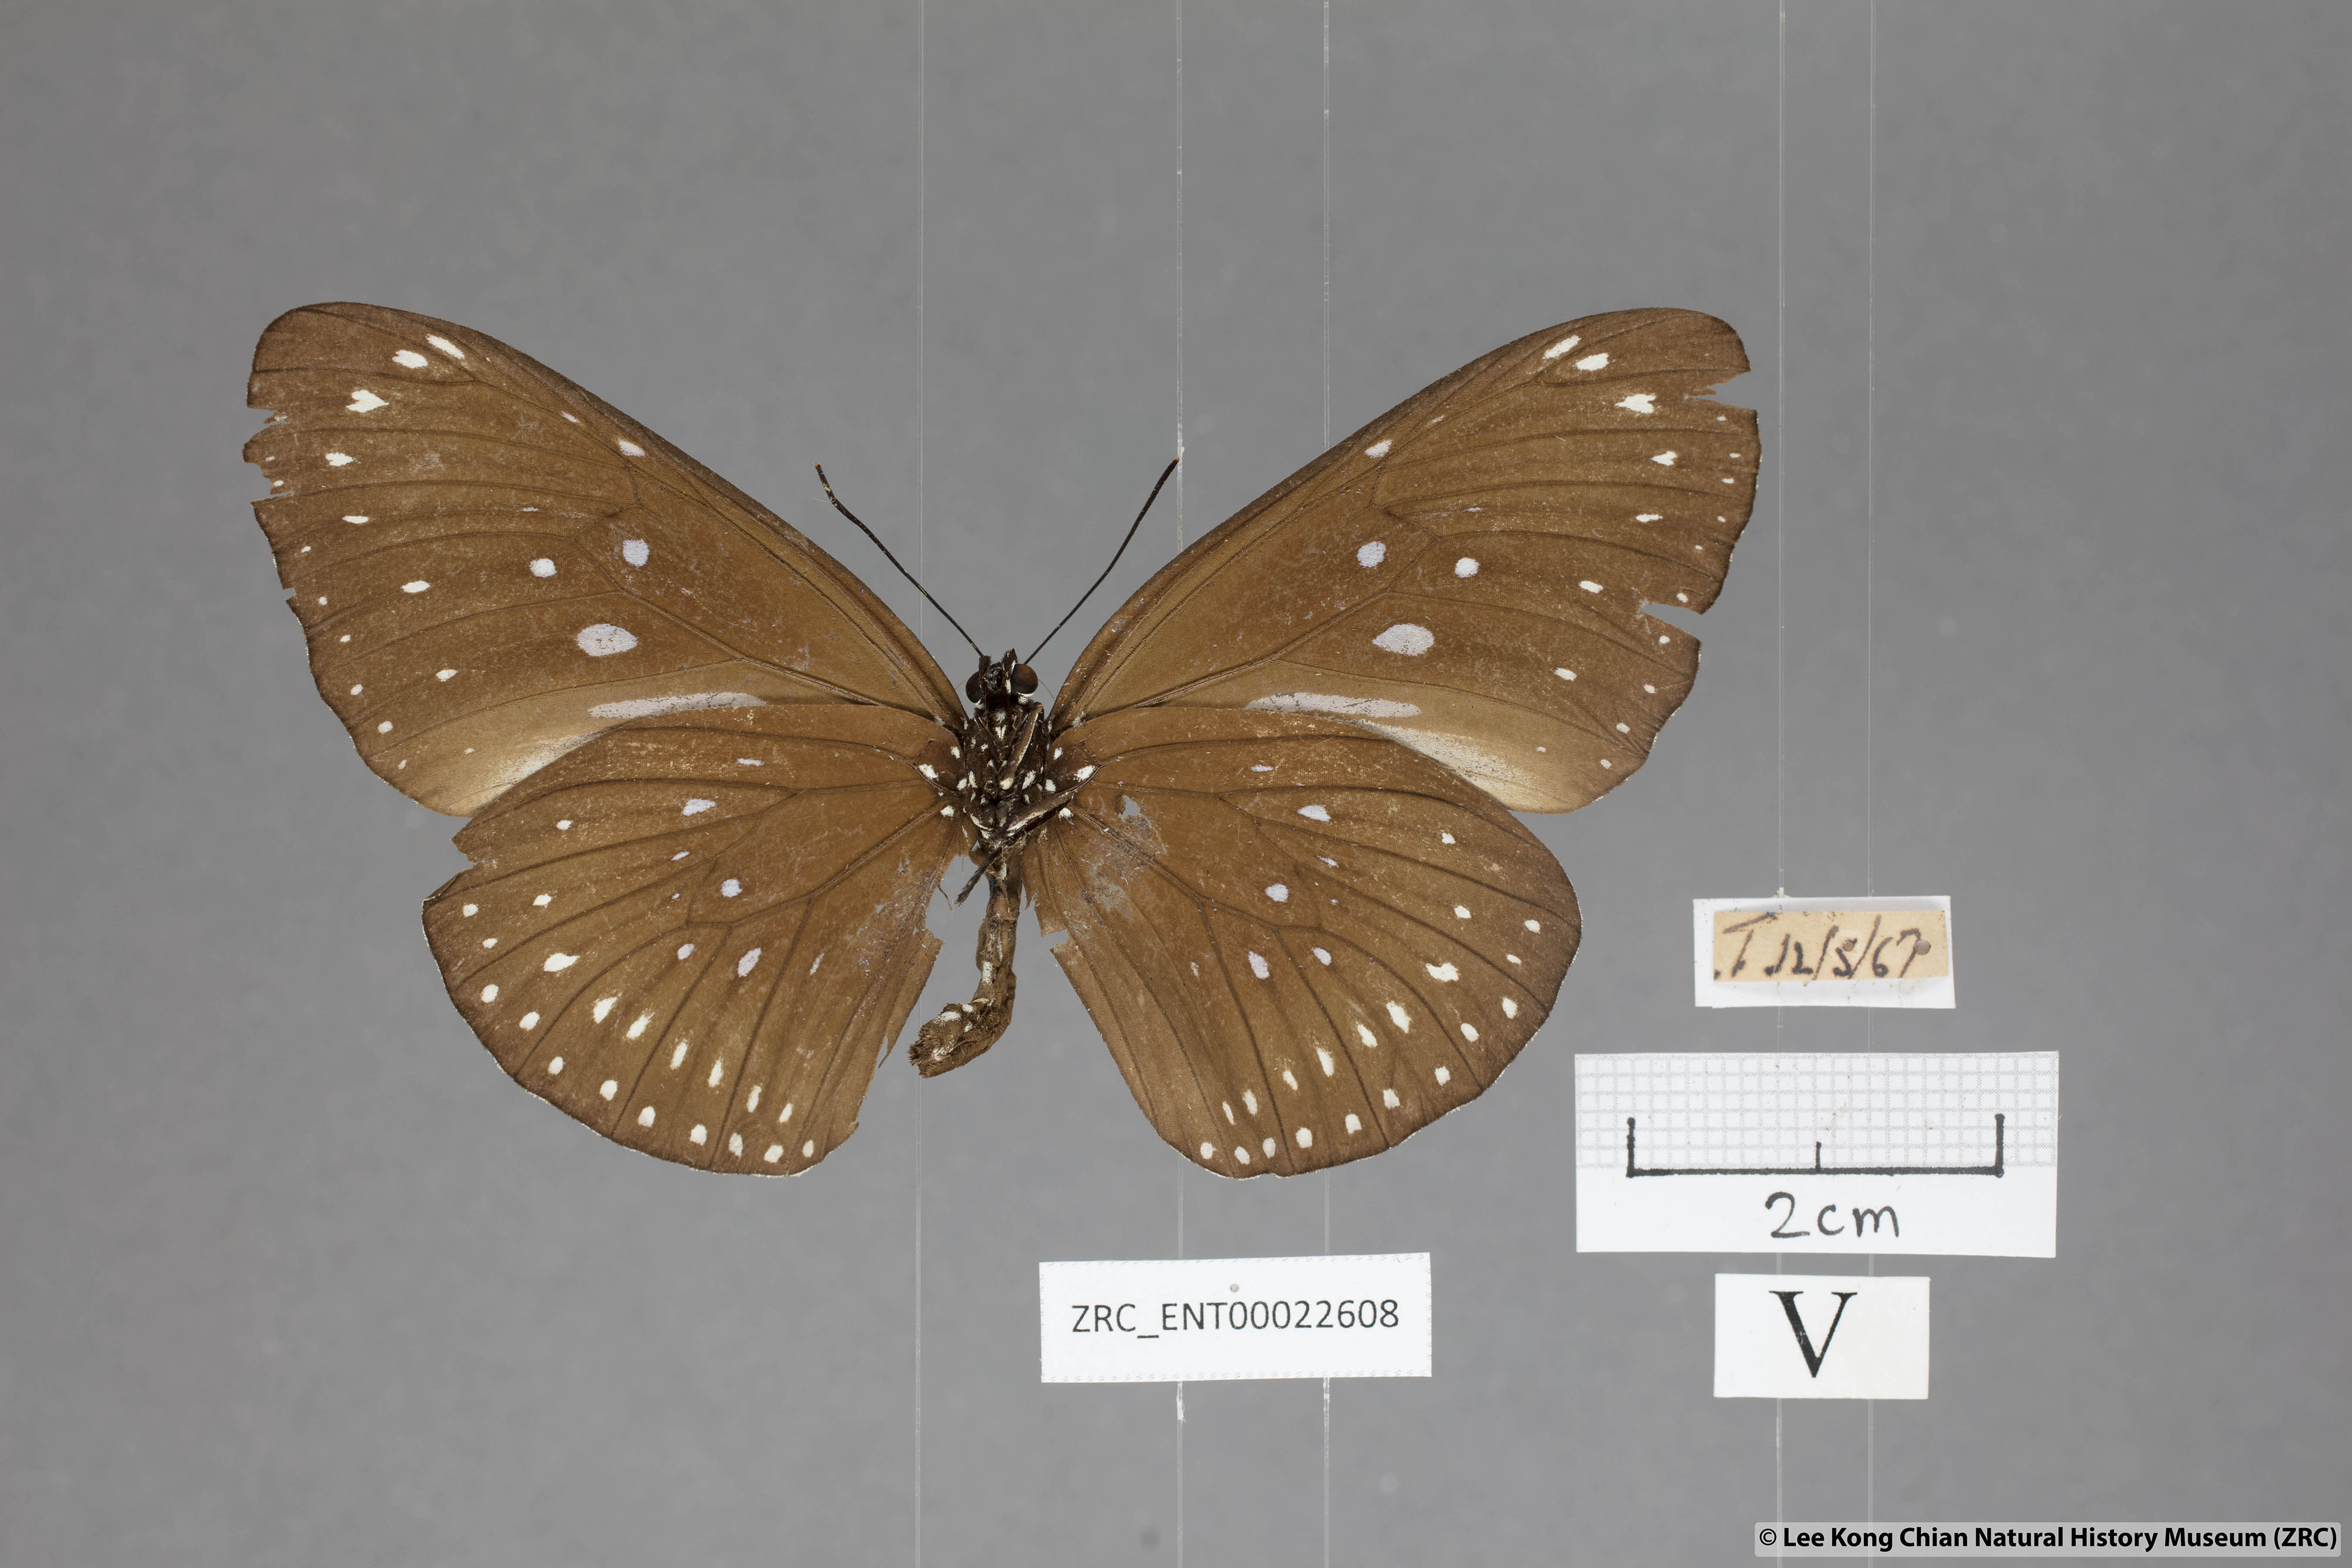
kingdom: Animalia
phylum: Arthropoda
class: Insecta
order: Lepidoptera
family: Nymphalidae
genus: Euploea
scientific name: Euploea modesta
